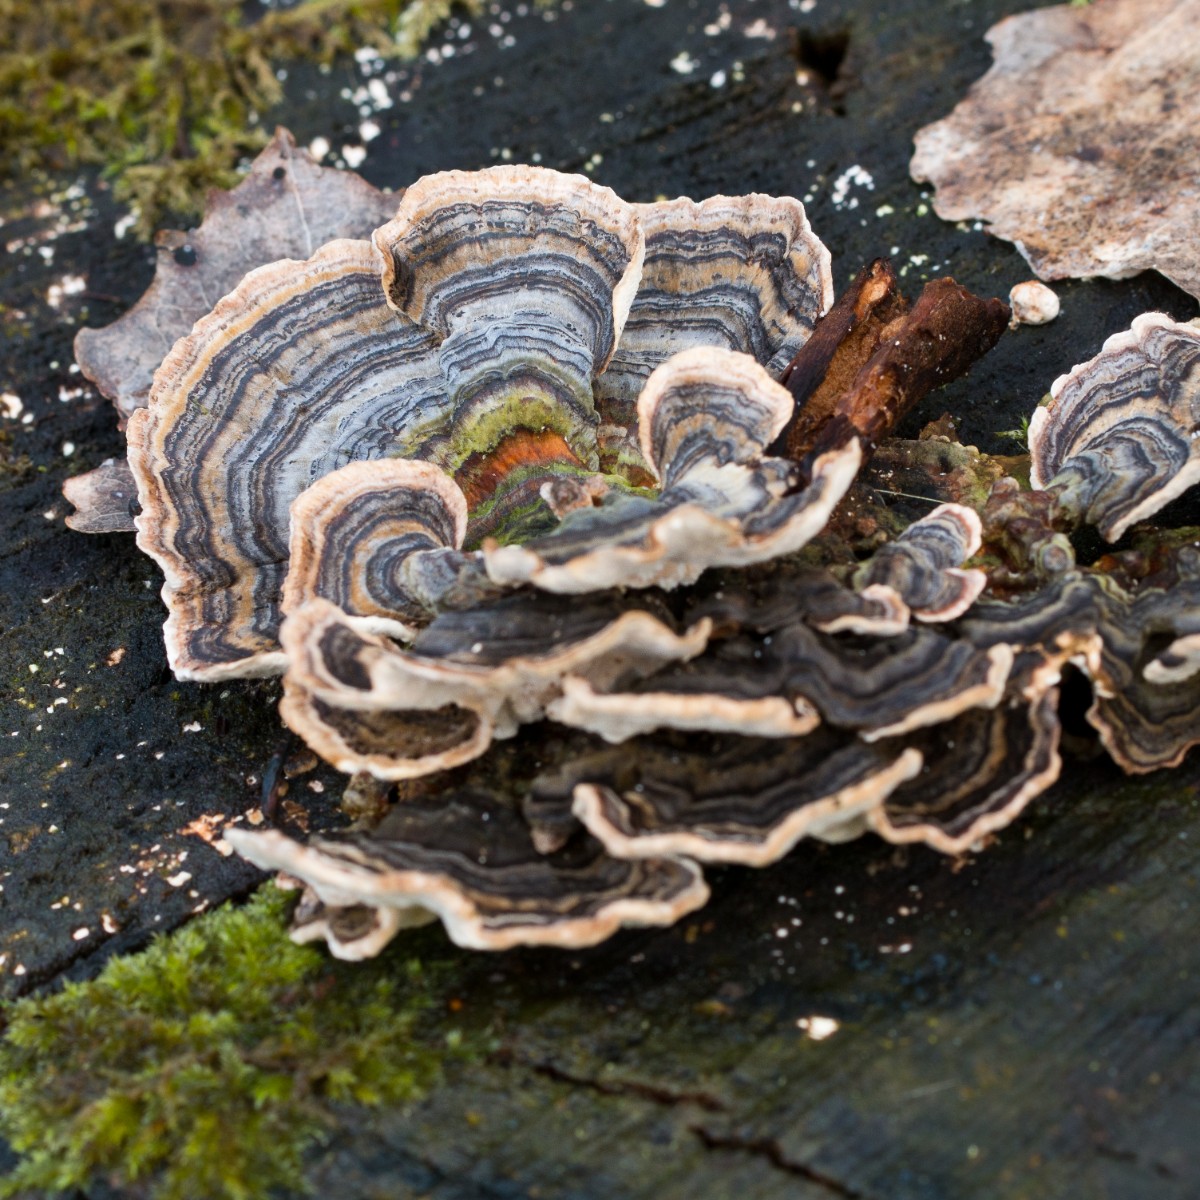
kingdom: Fungi
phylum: Basidiomycota
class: Agaricomycetes
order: Polyporales
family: Polyporaceae
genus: Trametes
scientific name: Trametes versicolor
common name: broget læderporesvamp
